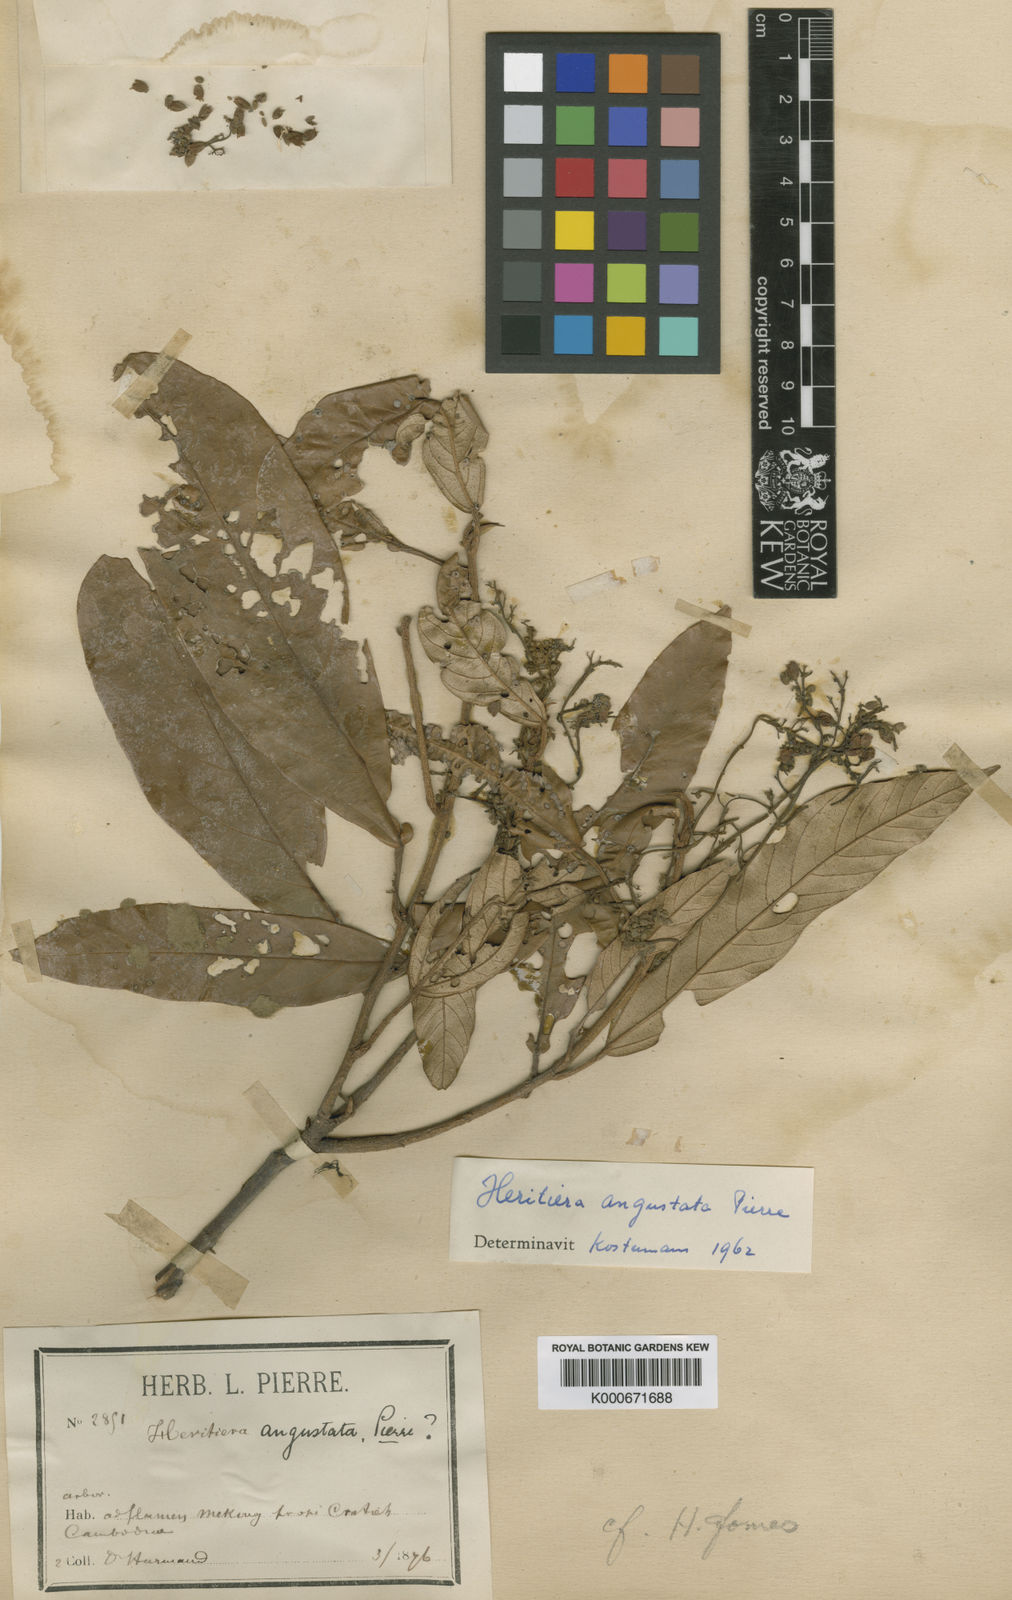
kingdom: Plantae
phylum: Tracheophyta
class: Magnoliopsida
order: Malvales
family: Malvaceae
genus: Heritiera
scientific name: Heritiera angustata
